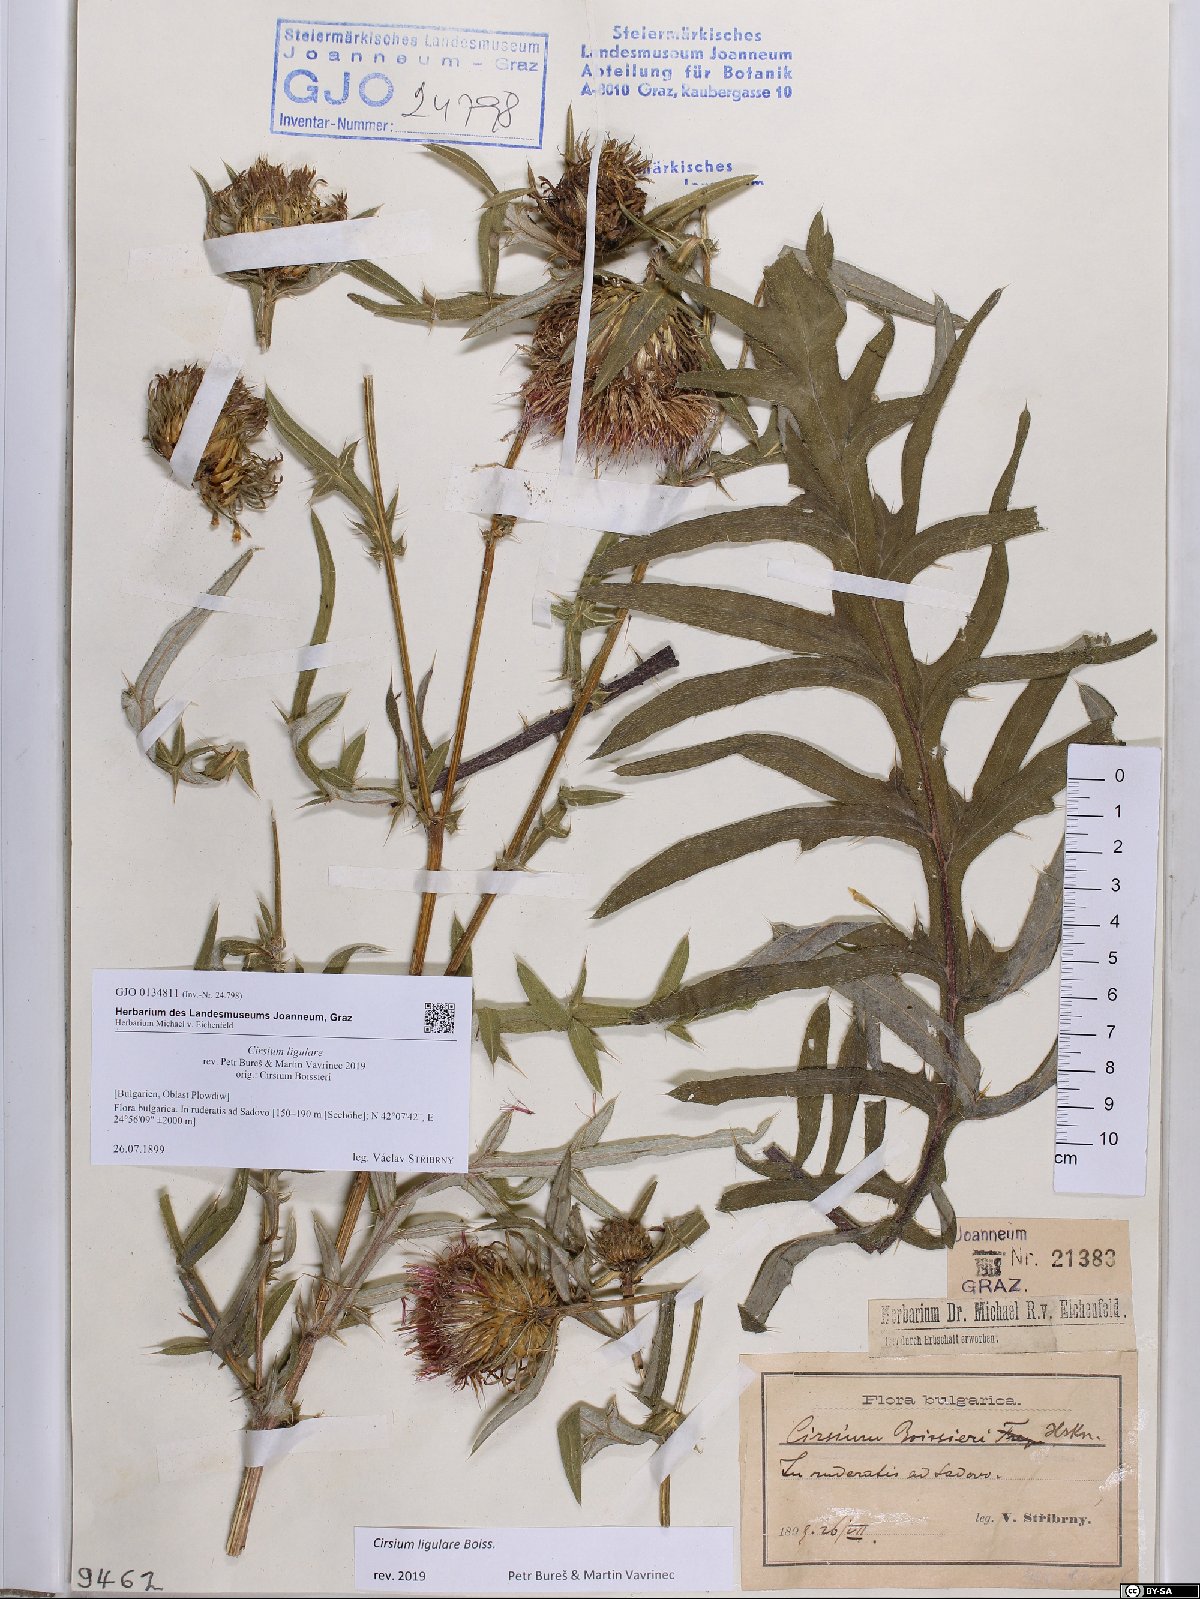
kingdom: Plantae
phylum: Tracheophyta
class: Magnoliopsida
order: Asterales
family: Asteraceae
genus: Lophiolepis
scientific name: Lophiolepis ligularis
